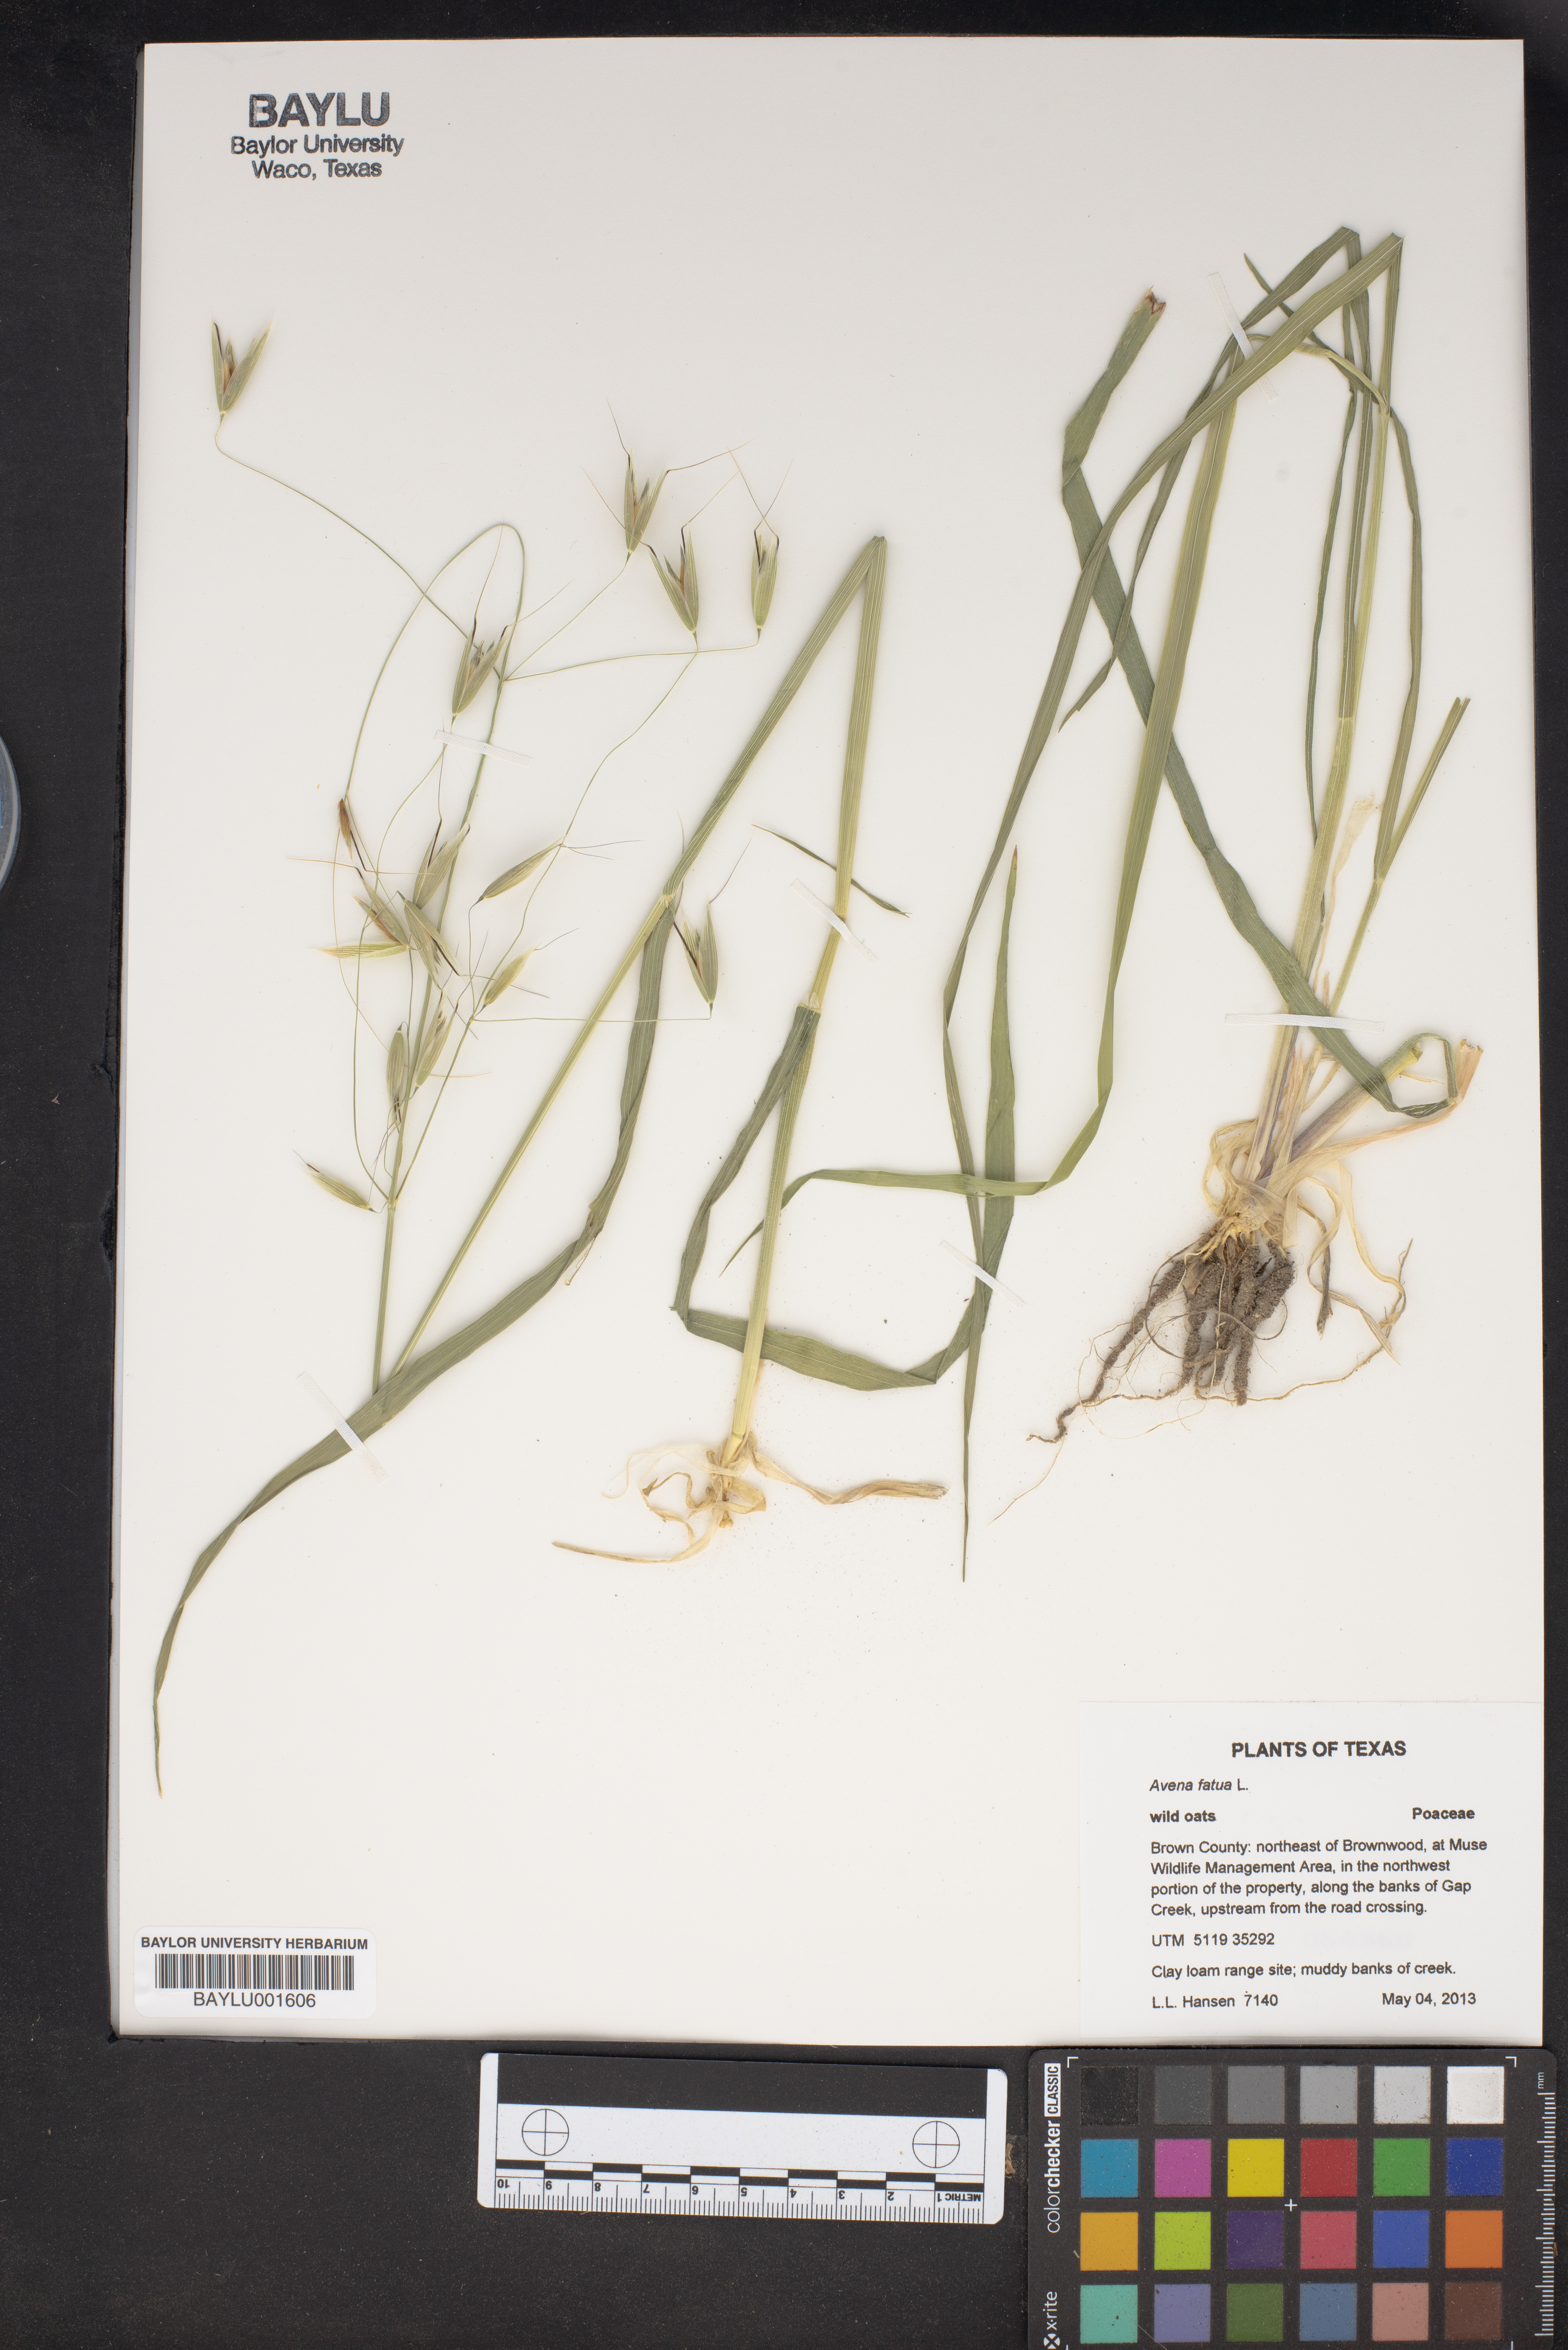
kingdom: Plantae
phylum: Tracheophyta
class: Liliopsida
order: Poales
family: Poaceae
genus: Avena
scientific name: Avena fatua
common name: Wild oat
